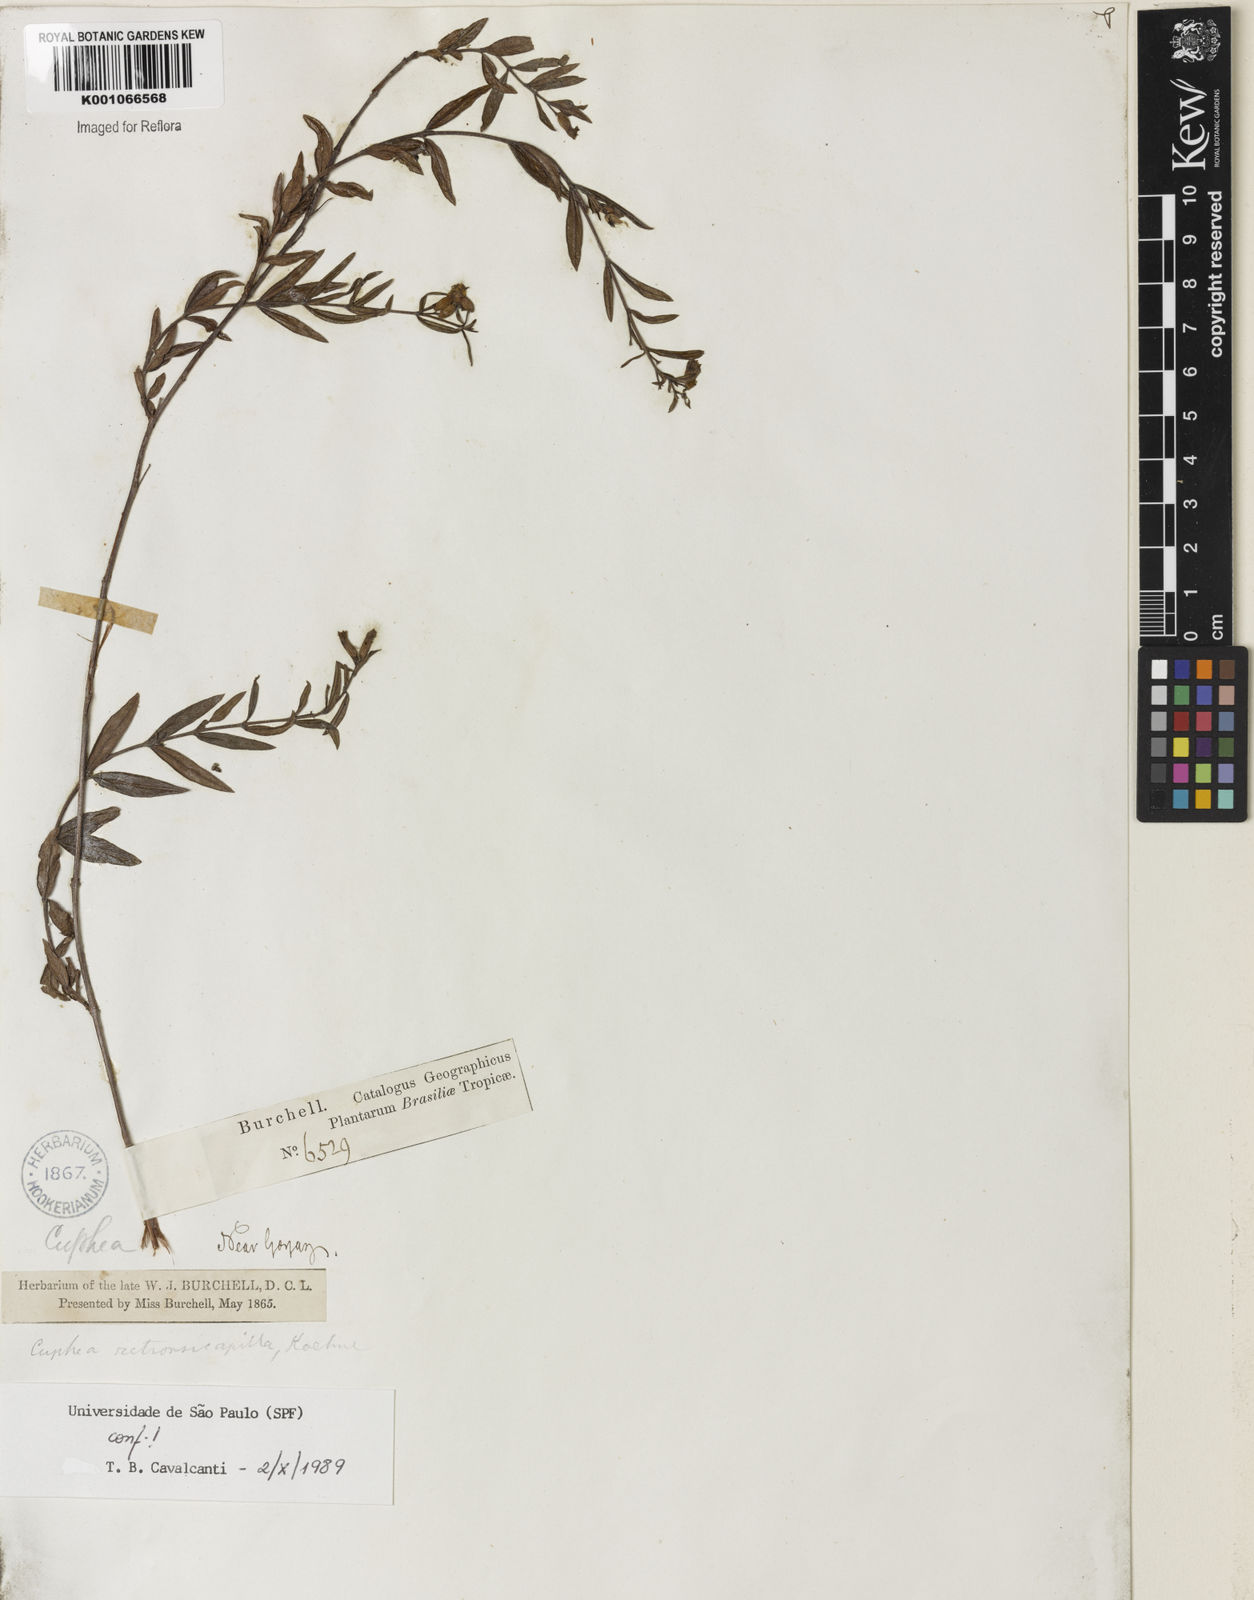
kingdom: Plantae
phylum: Tracheophyta
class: Magnoliopsida
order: Myrtales
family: Lythraceae
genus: Cuphea
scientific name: Cuphea retrorsicapilla
